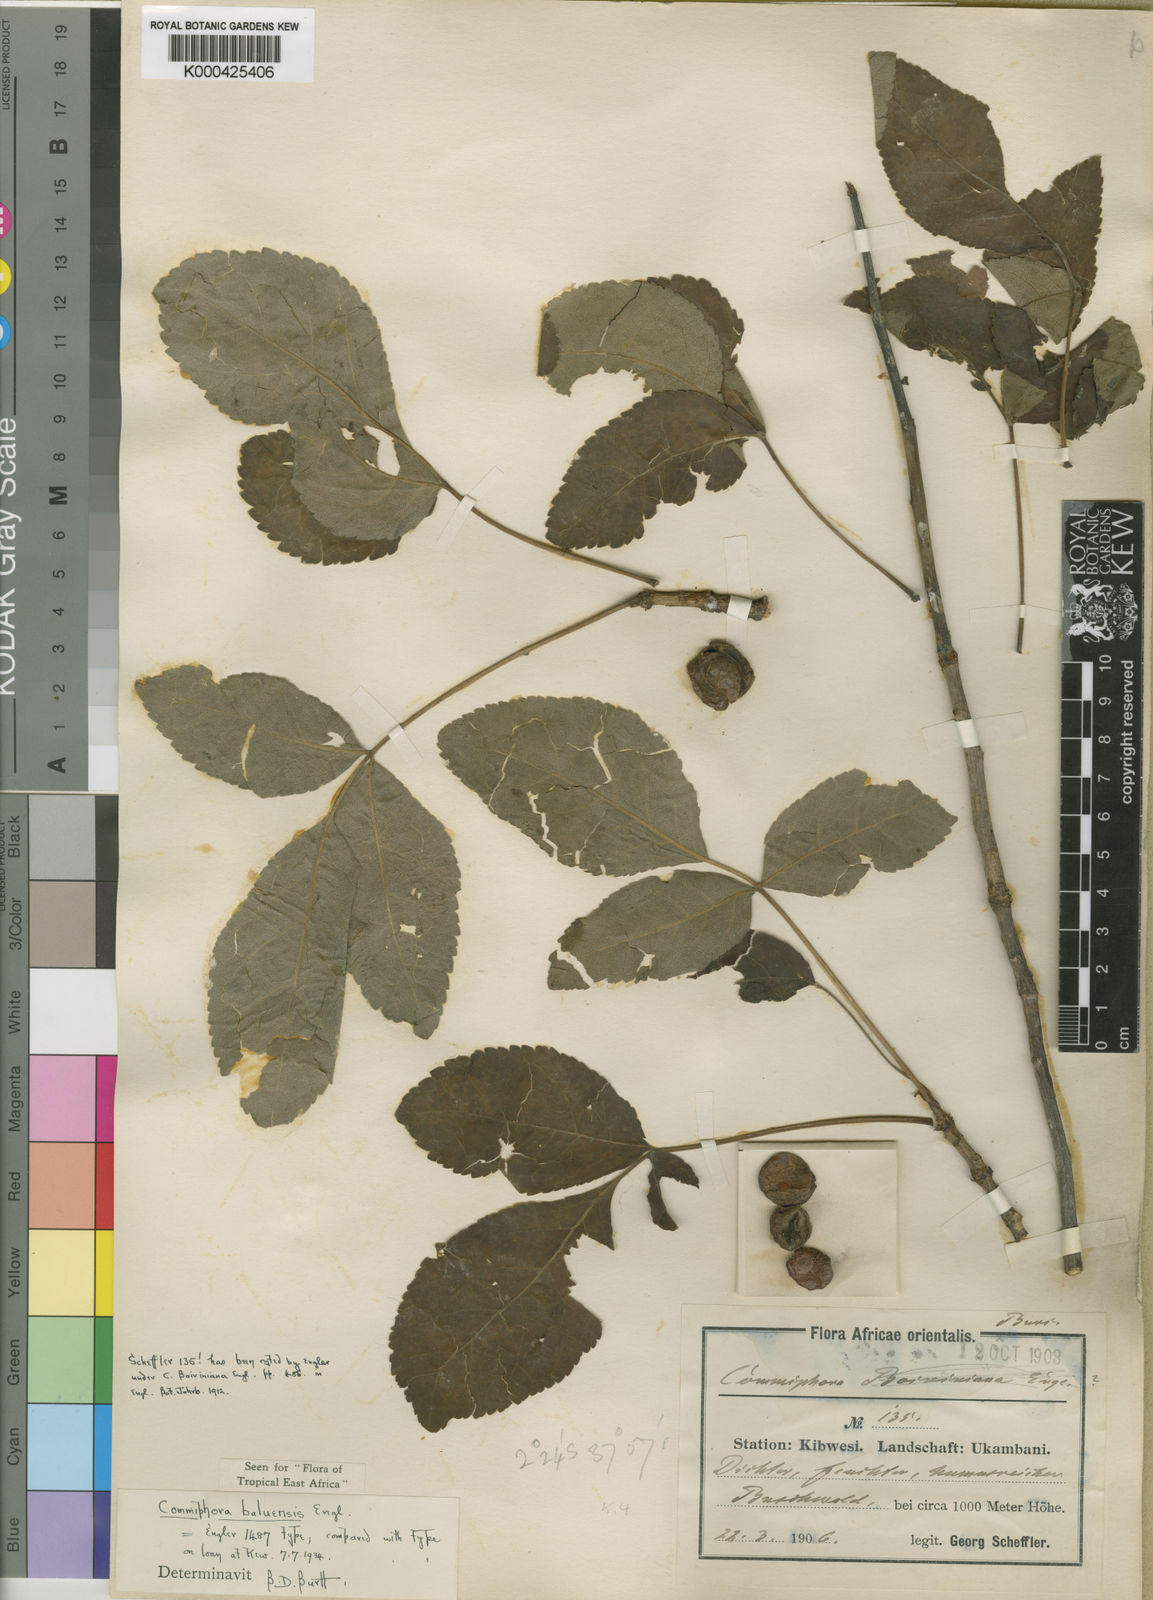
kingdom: Plantae
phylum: Tracheophyta
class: Magnoliopsida
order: Sapindales
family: Burseraceae
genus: Commiphora
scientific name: Commiphora baluensis
